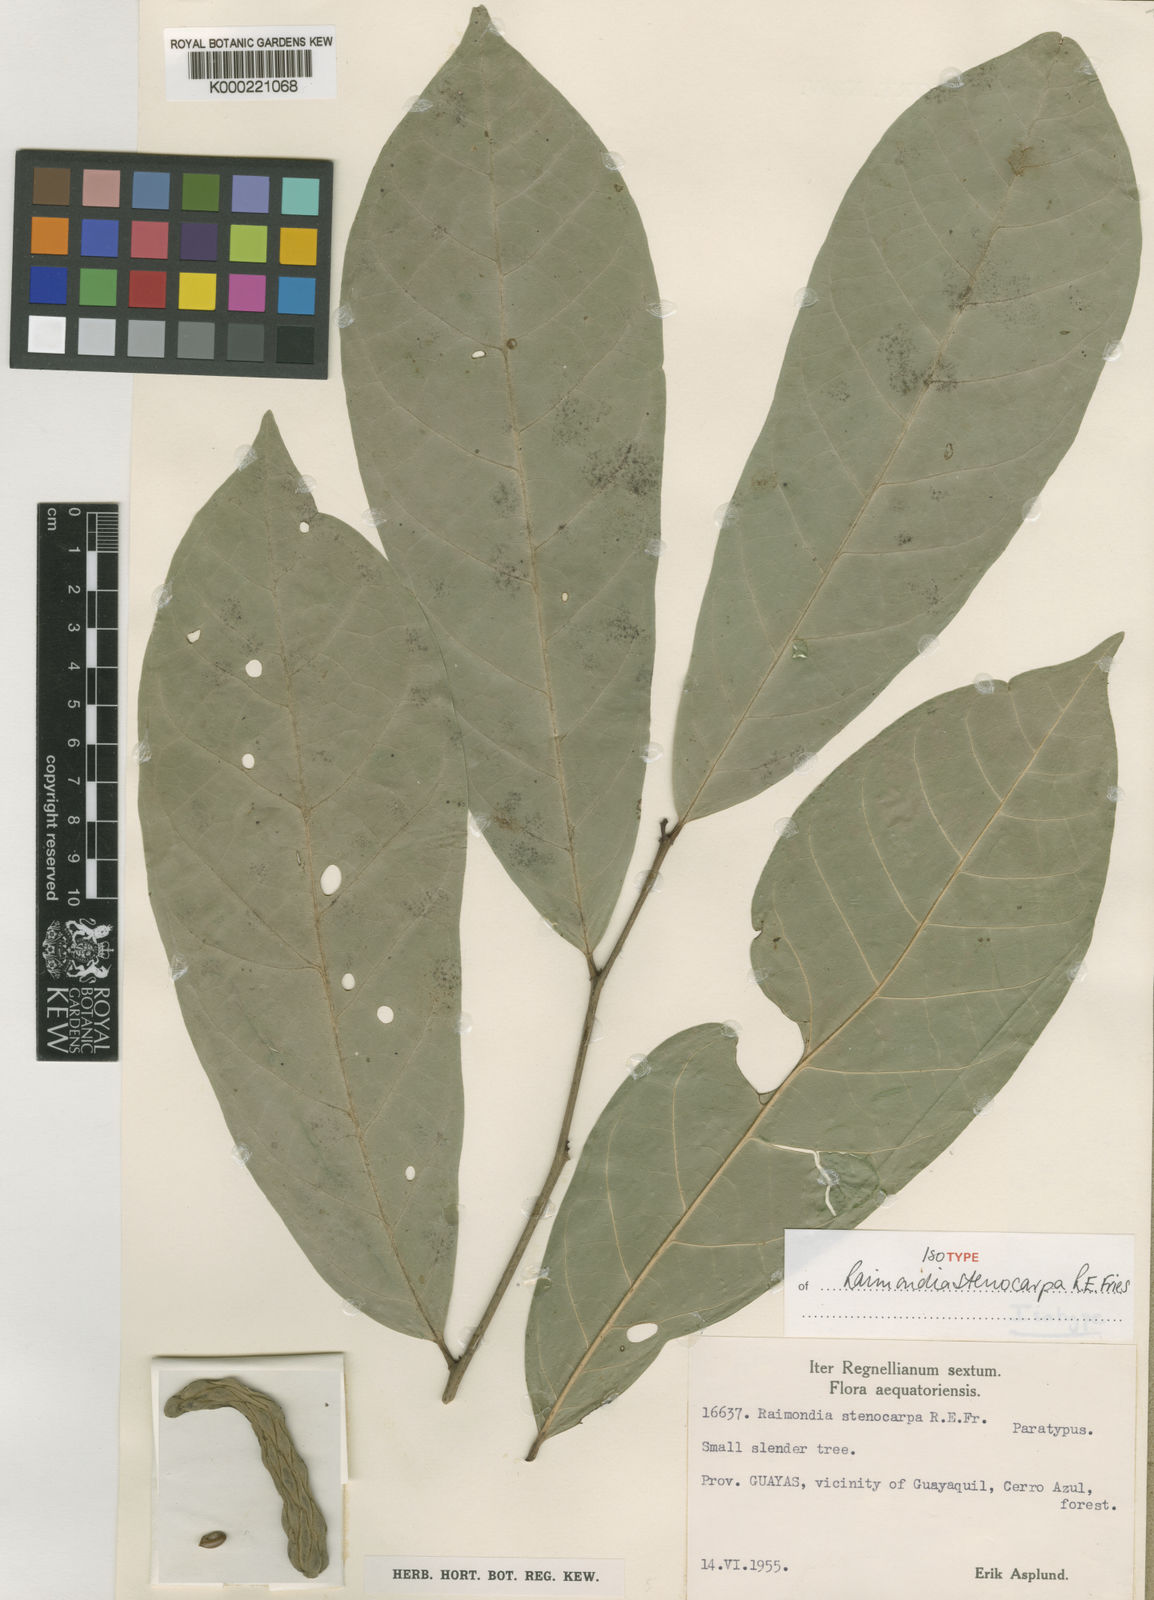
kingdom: Plantae
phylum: Tracheophyta
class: Magnoliopsida
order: Magnoliales
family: Annonaceae
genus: Annona
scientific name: Annona
